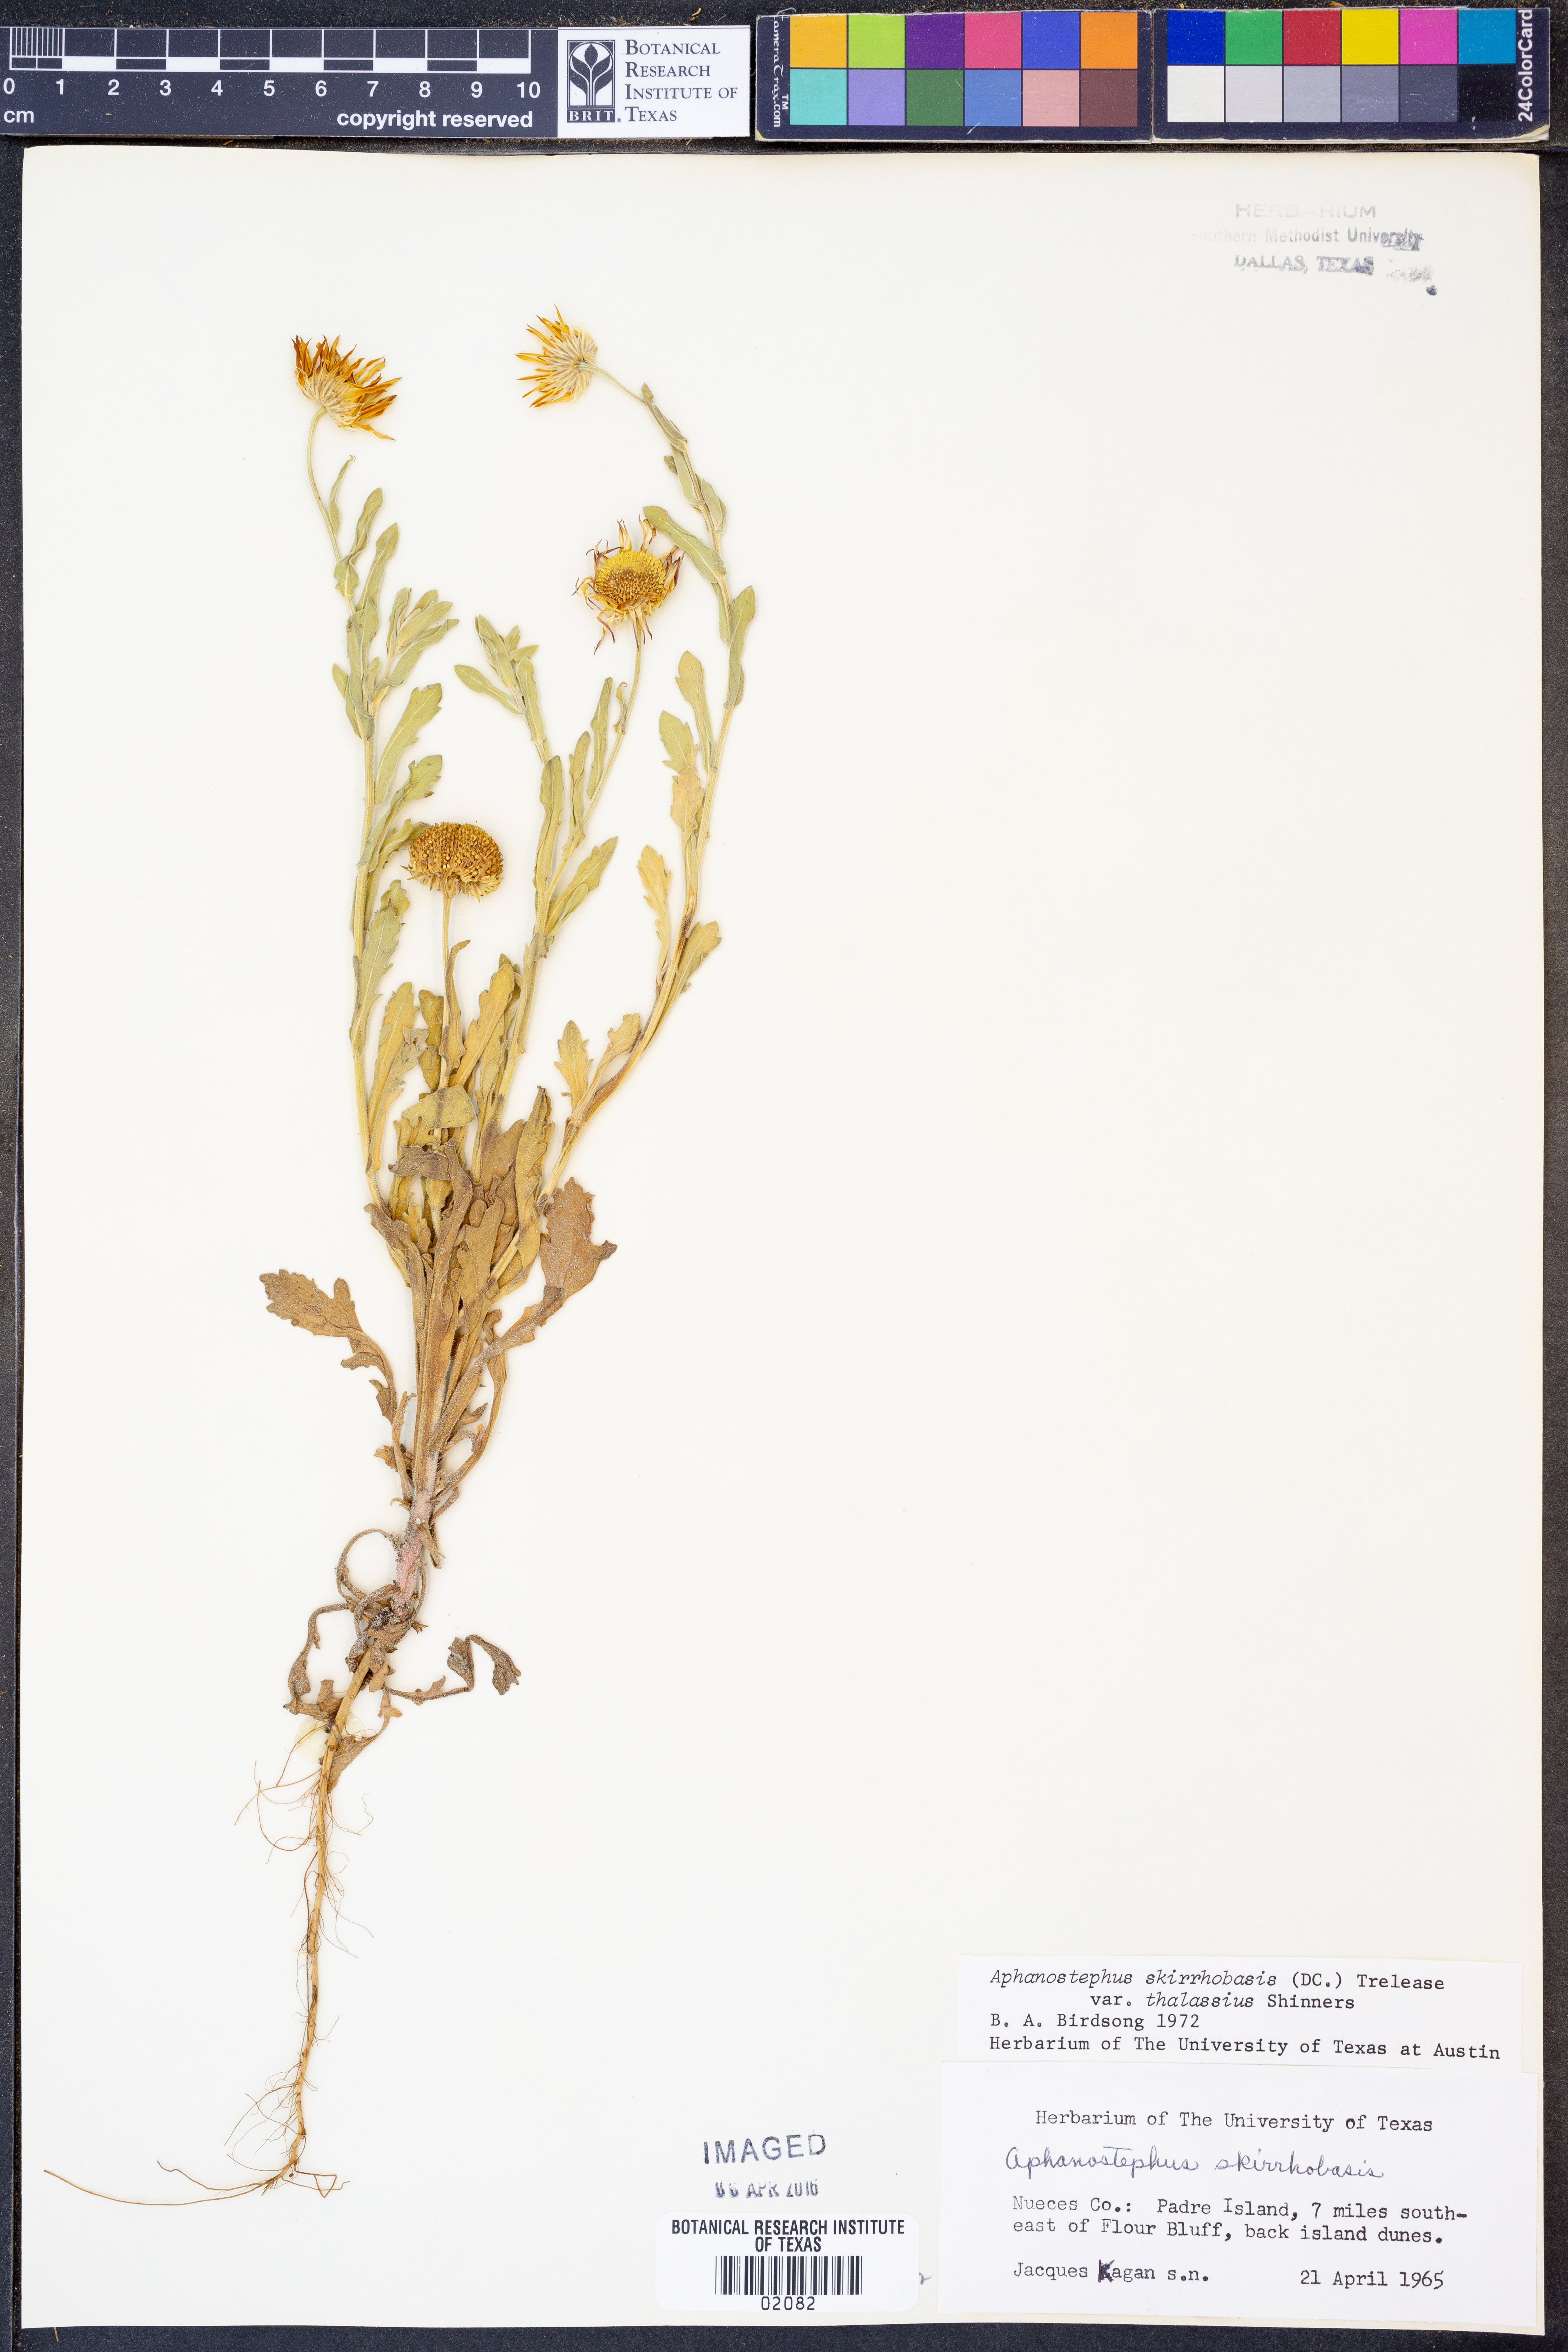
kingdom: Plantae
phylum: Tracheophyta
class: Magnoliopsida
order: Asterales
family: Asteraceae
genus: Aphanostephus
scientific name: Aphanostephus skirrhobasis
